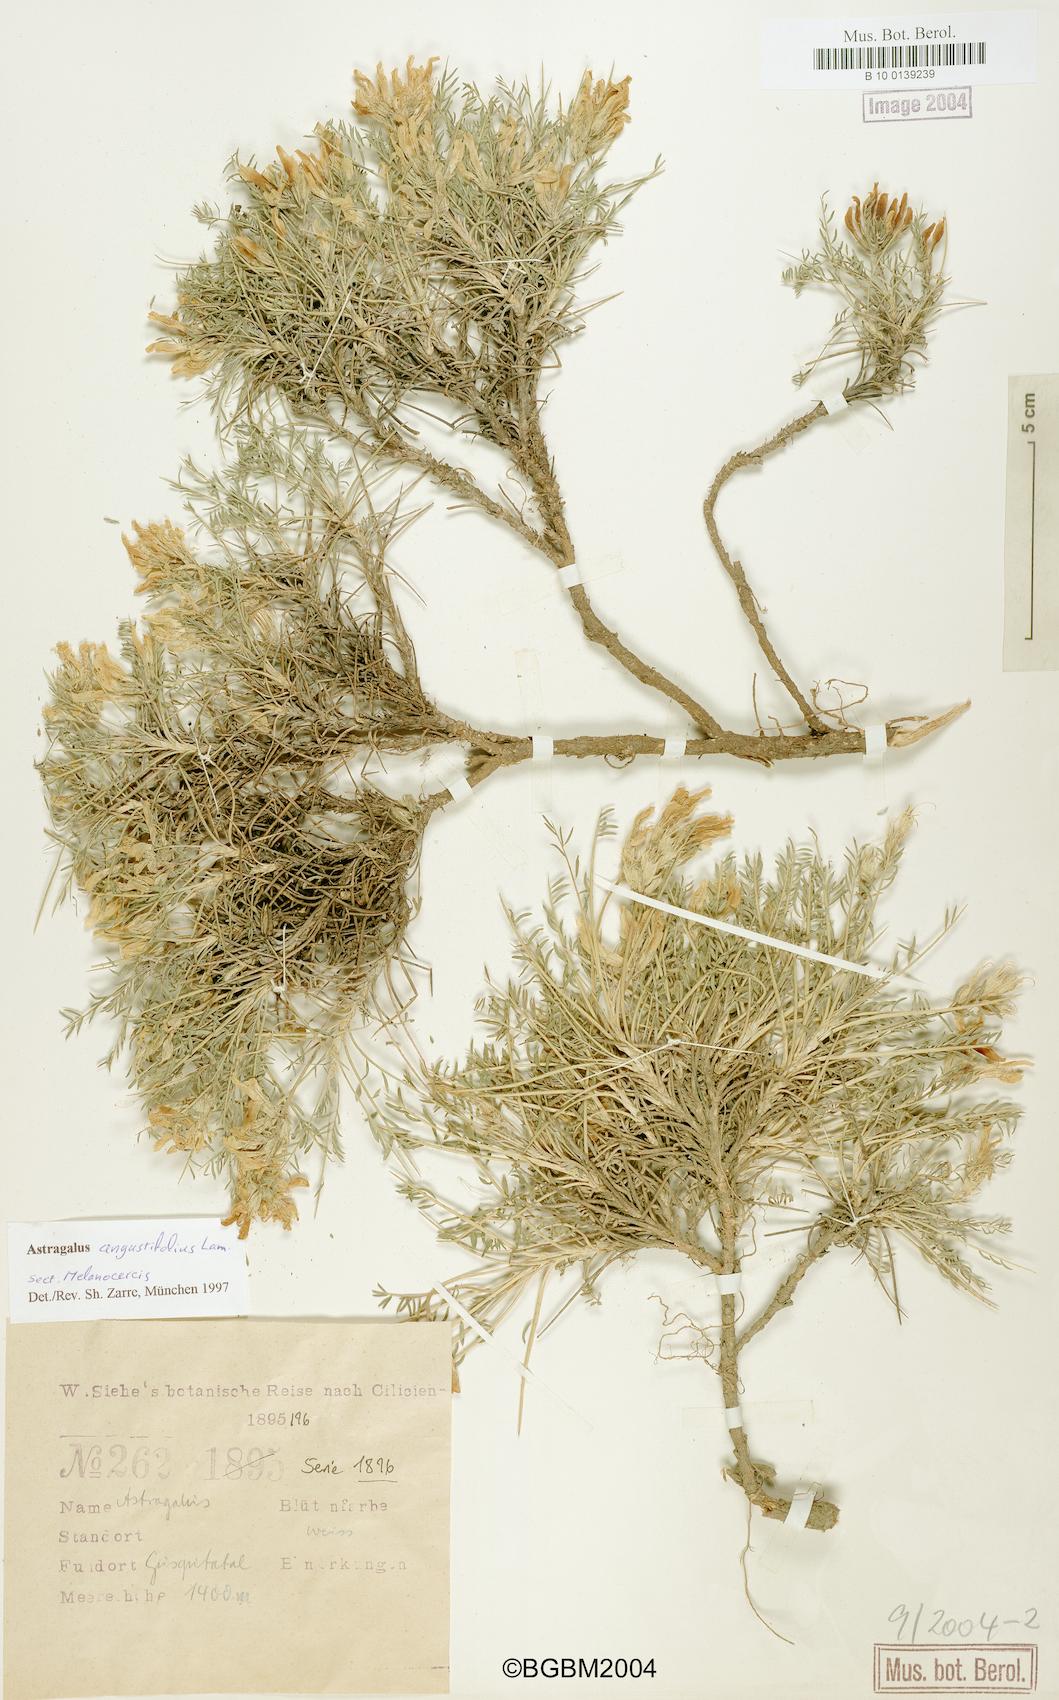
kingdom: Plantae
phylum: Tracheophyta
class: Magnoliopsida
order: Fabales
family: Fabaceae
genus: Astragalus
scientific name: Astragalus angustifolius
